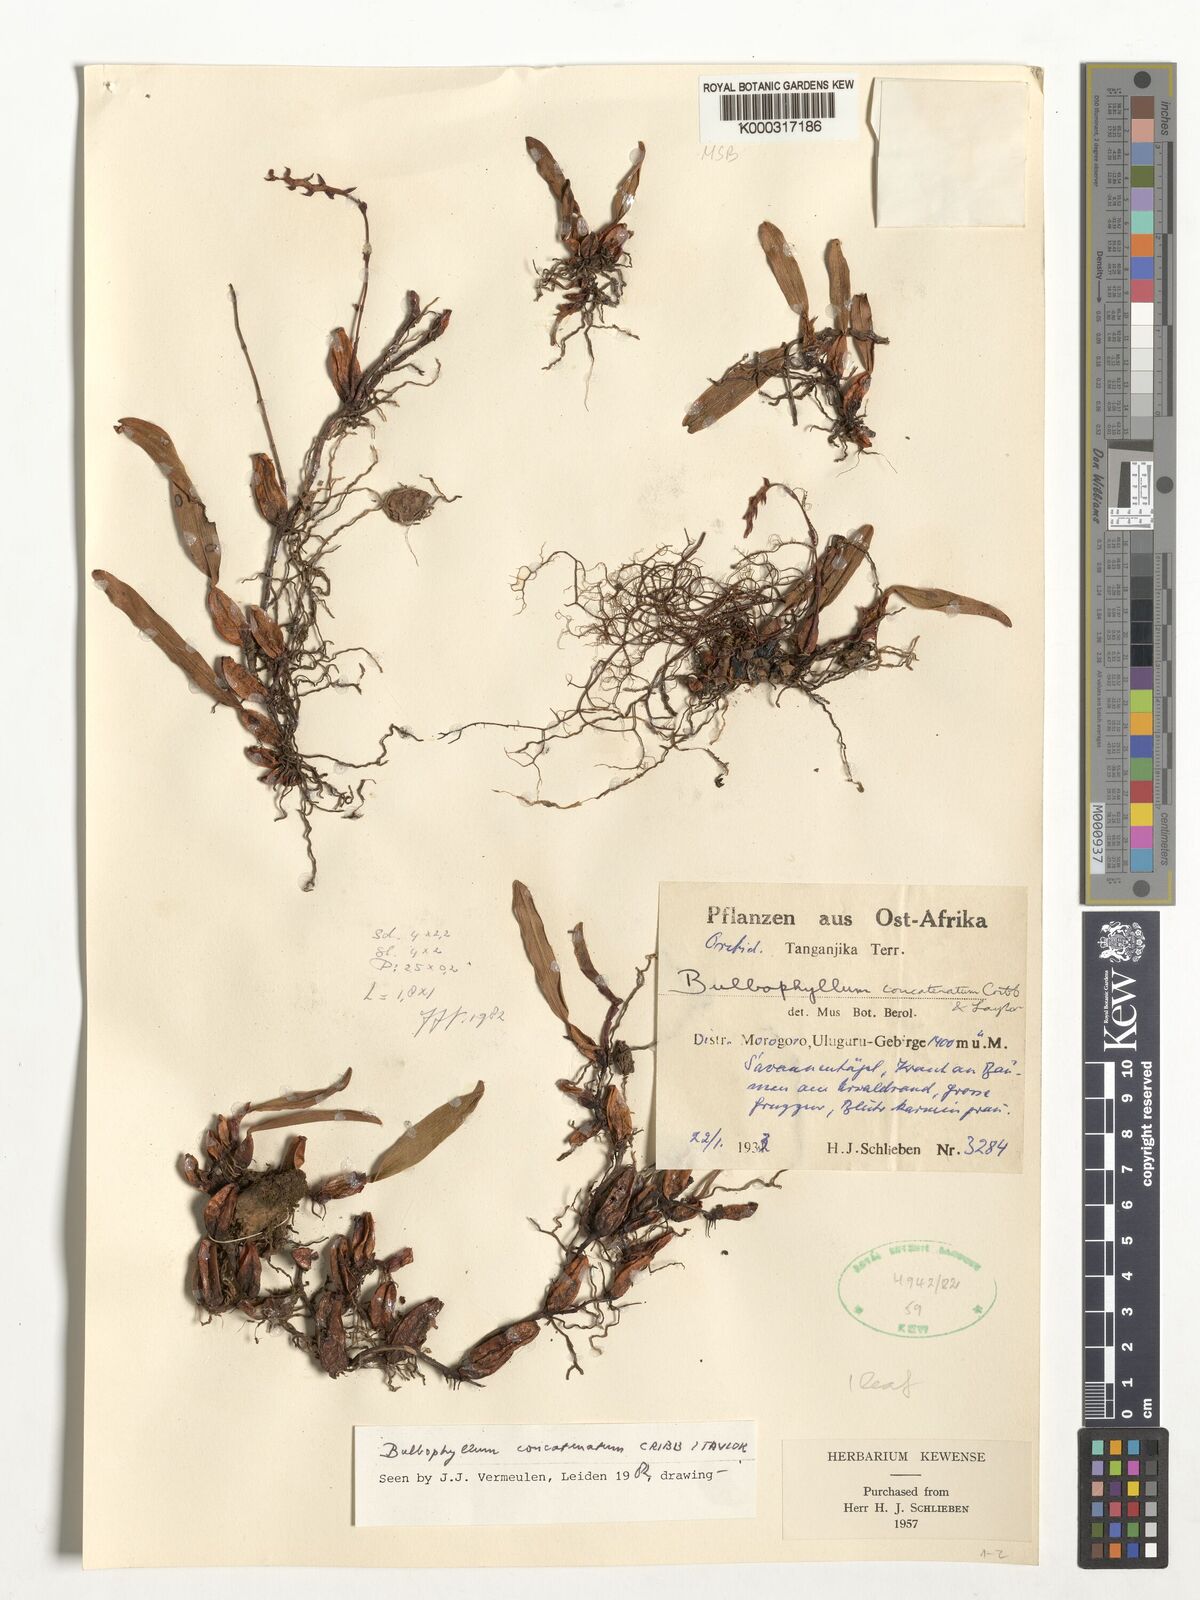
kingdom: Plantae
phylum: Tracheophyta
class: Liliopsida
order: Asparagales
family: Orchidaceae
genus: Bulbophyllum
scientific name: Bulbophyllum concatenatum
